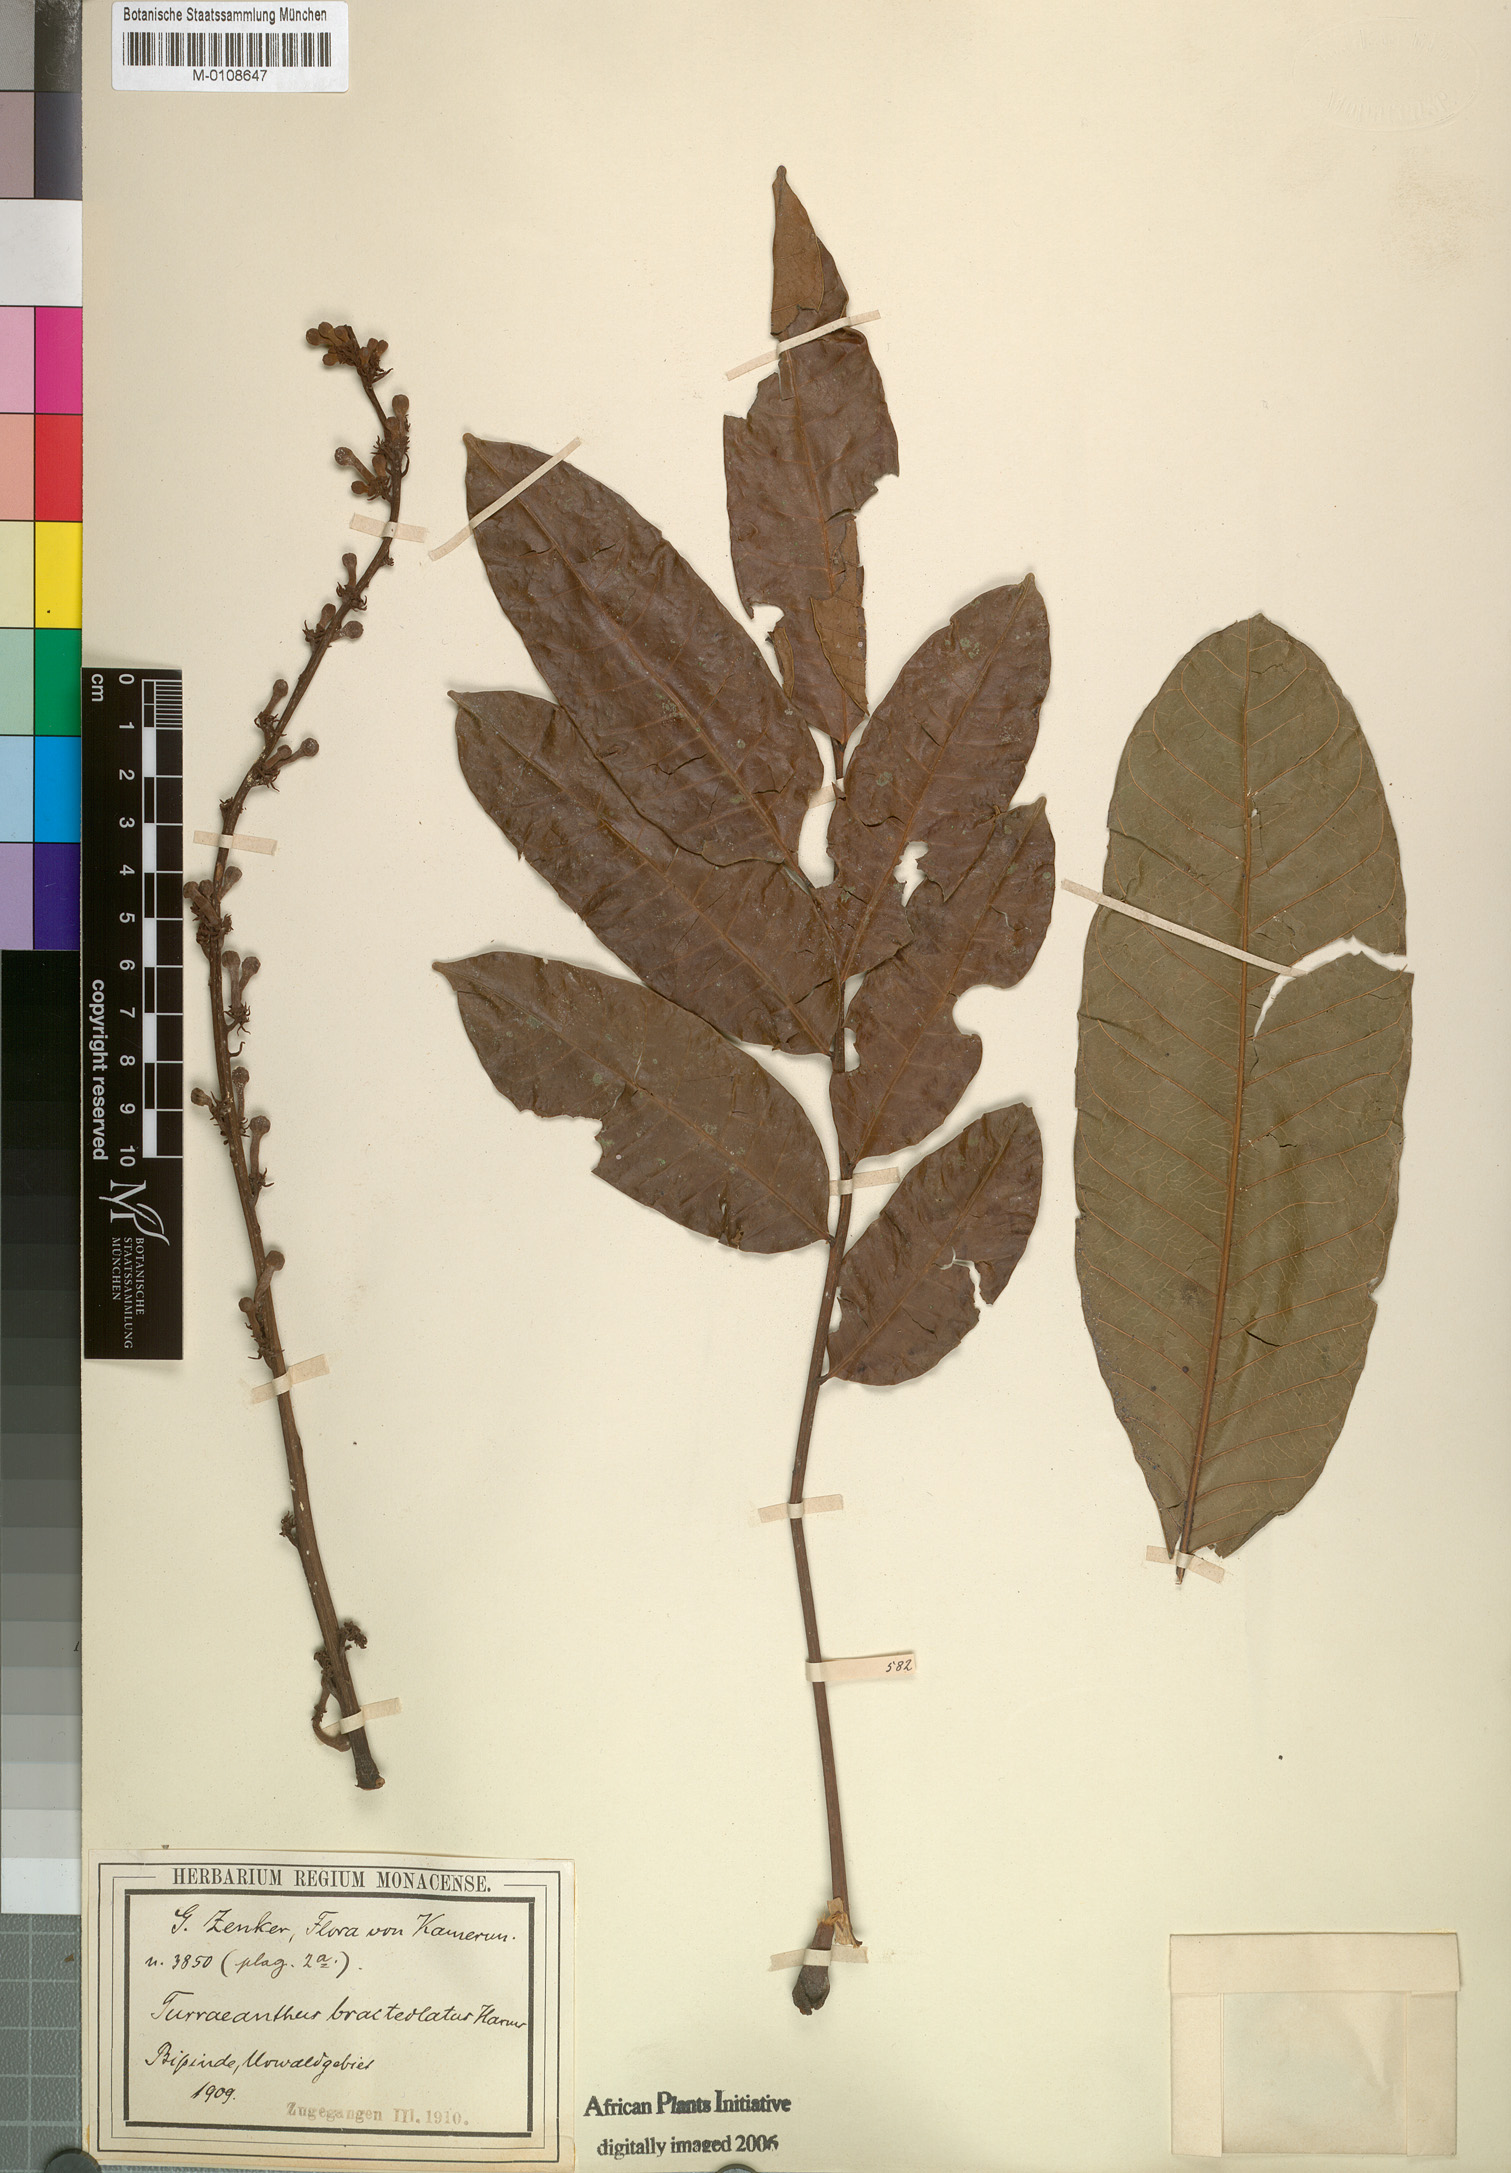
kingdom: Plantae
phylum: Tracheophyta
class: Magnoliopsida
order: Sapindales
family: Meliaceae
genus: Turraeanthus
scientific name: Turraeanthus longipes
